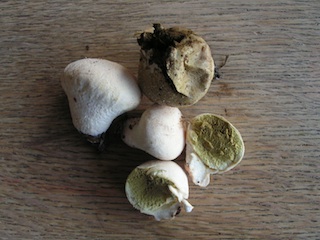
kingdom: Fungi
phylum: Basidiomycota
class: Agaricomycetes
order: Agaricales
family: Lycoperdaceae
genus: Lycoperdon
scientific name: Lycoperdon pratense
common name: flad støvbold
